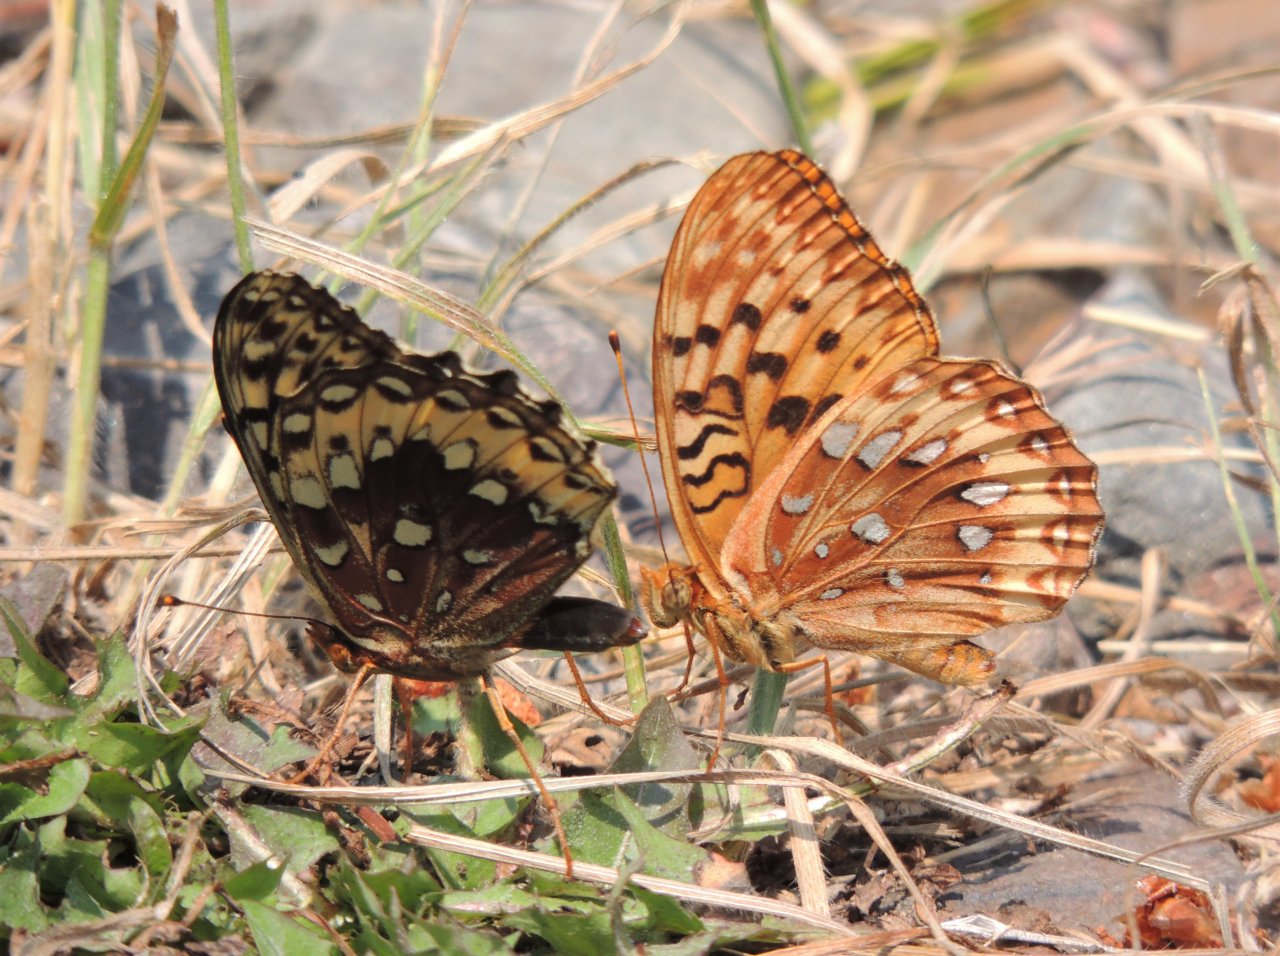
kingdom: Animalia
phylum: Arthropoda
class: Insecta
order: Lepidoptera
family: Nymphalidae
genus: Speyeria
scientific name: Speyeria cybele
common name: Great Spangled Fritillary
